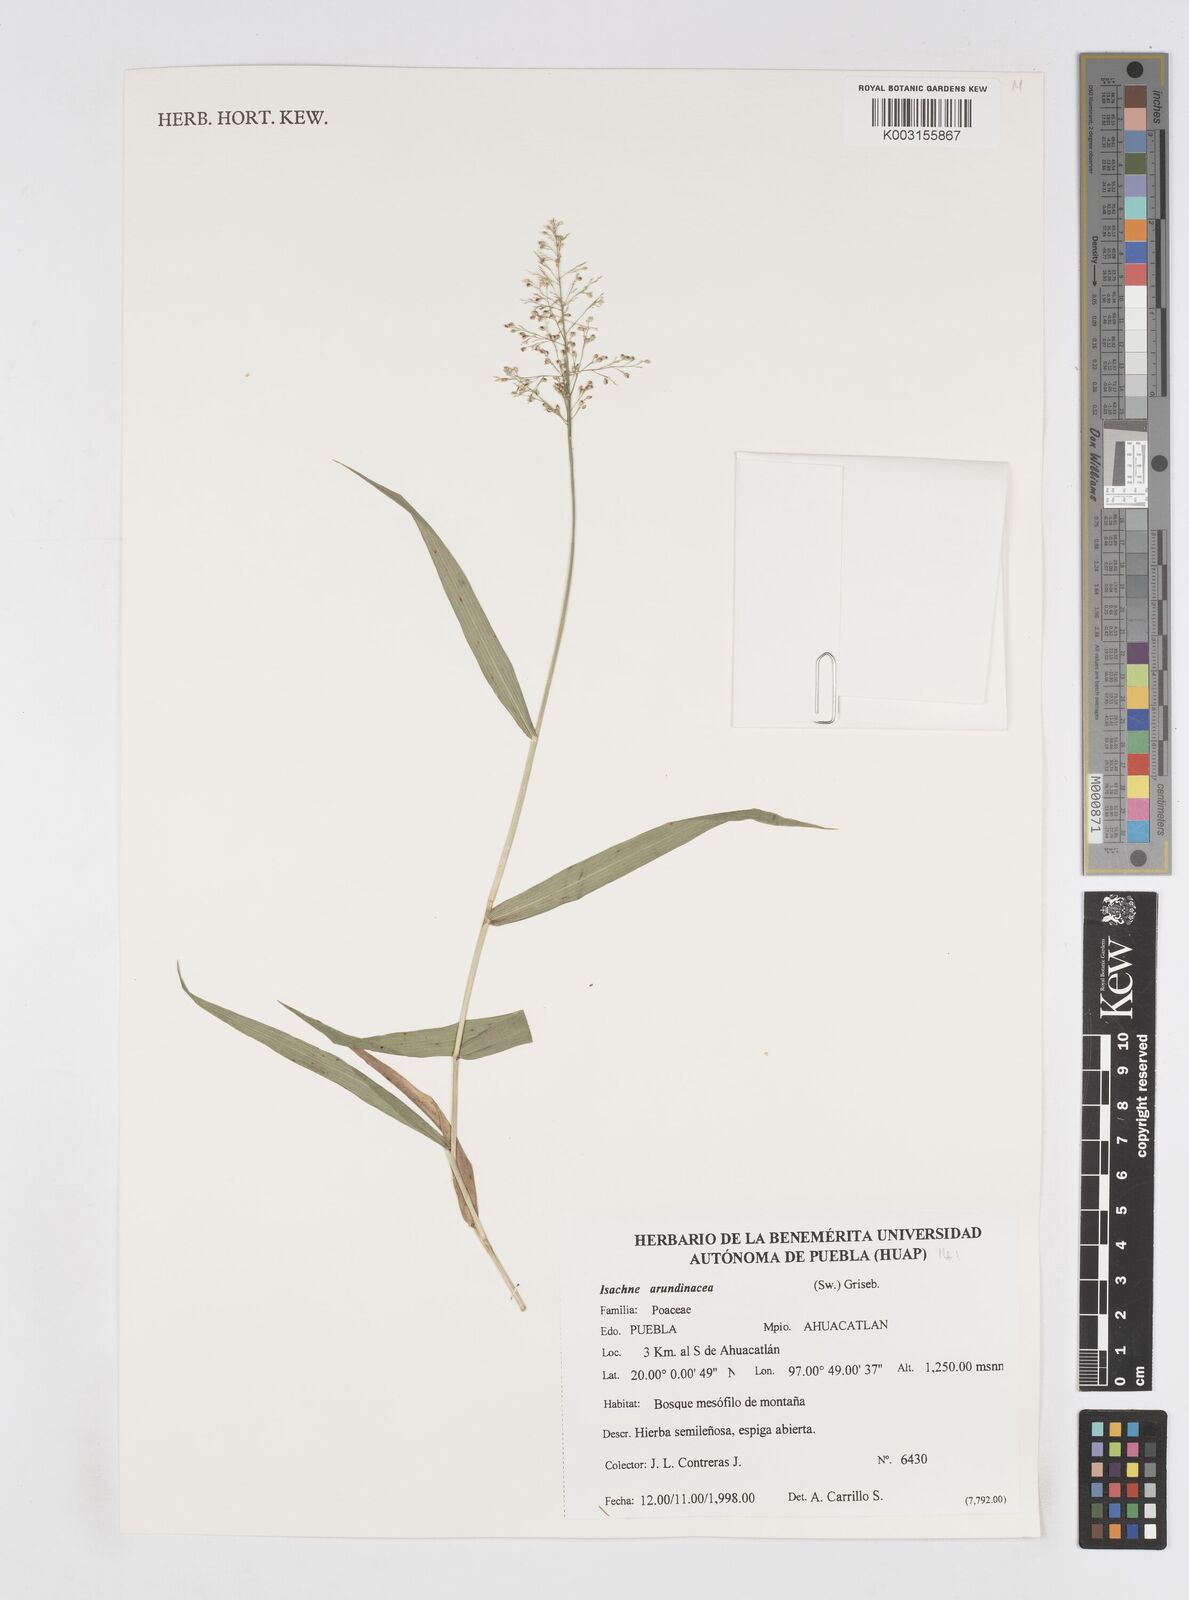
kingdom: Plantae
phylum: Tracheophyta
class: Liliopsida
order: Poales
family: Poaceae
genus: Isachne
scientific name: Isachne arundinacea
